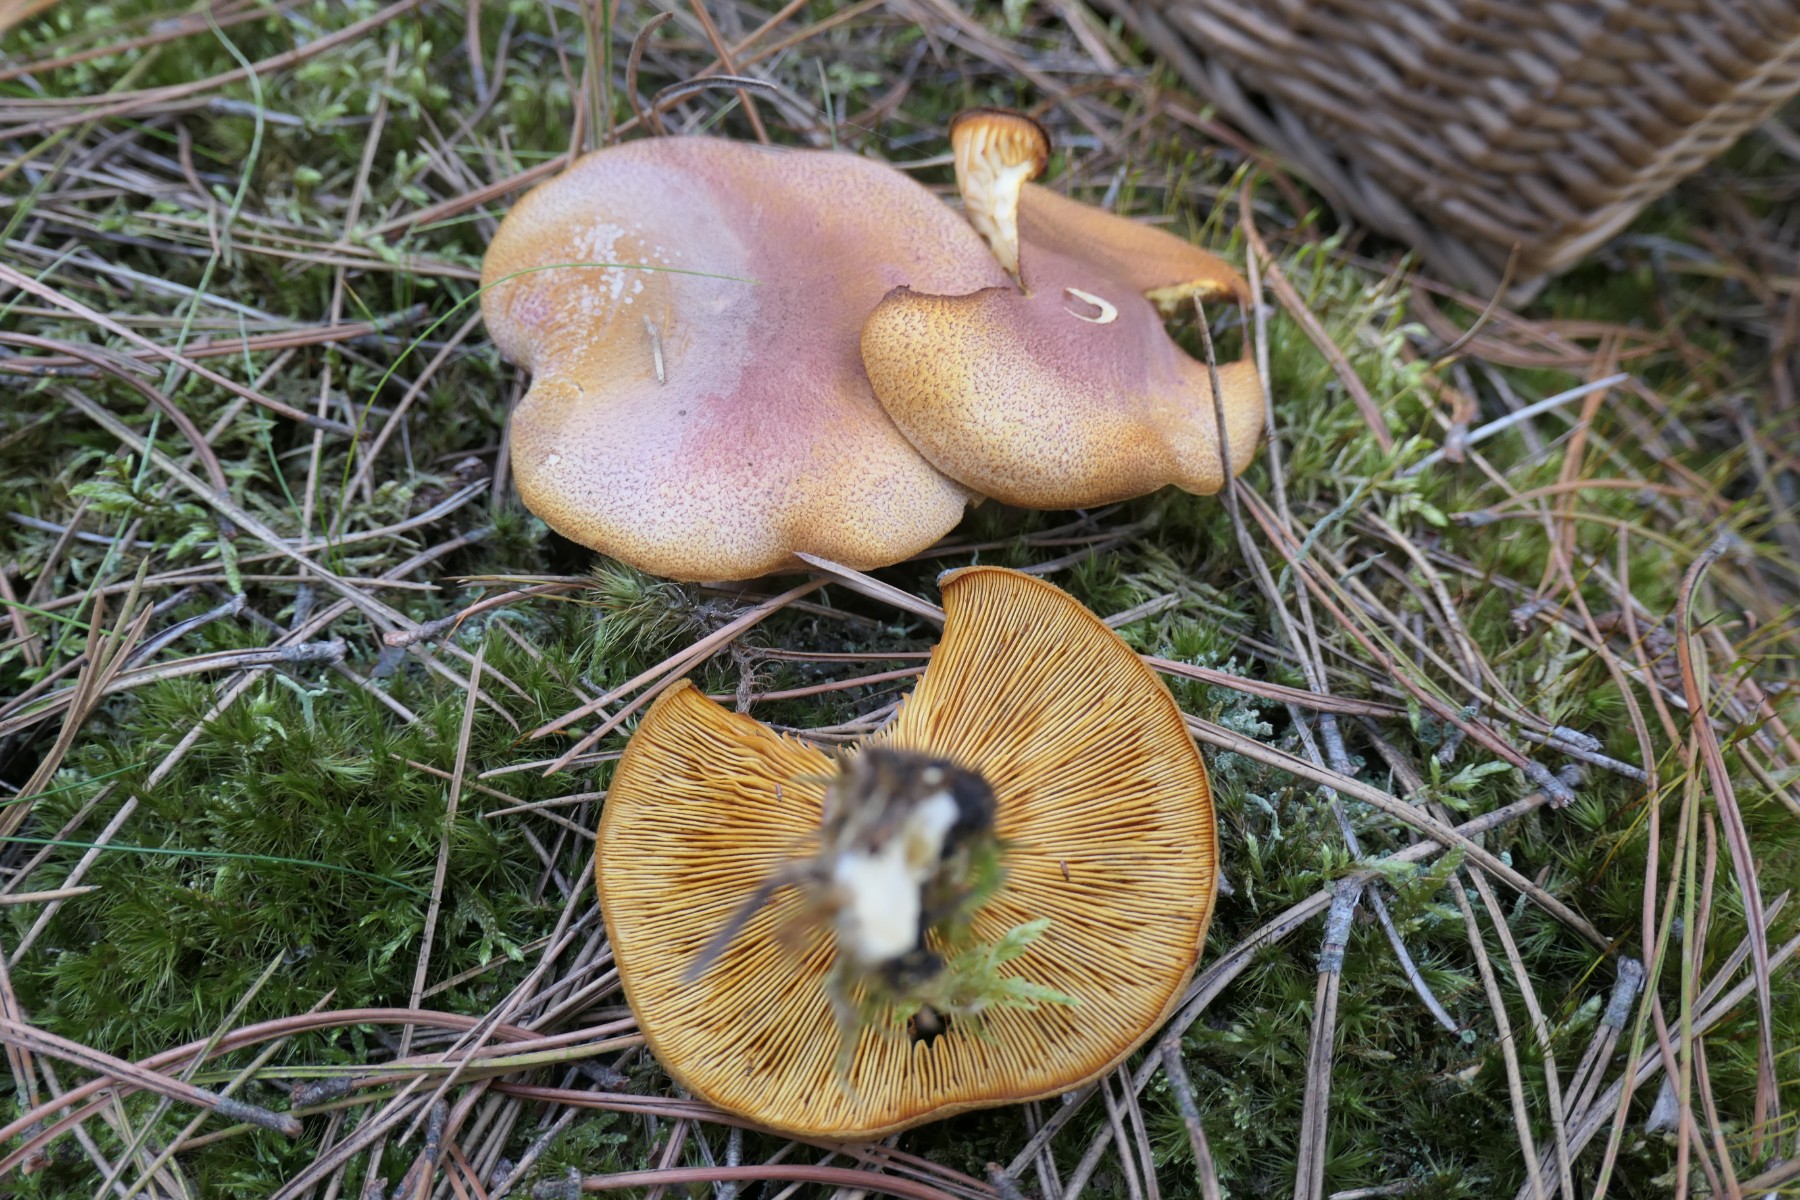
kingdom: Fungi
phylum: Basidiomycota
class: Agaricomycetes
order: Agaricales
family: Tricholomataceae
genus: Tricholomopsis
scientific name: Tricholomopsis rutilans
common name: purpur-væbnerhat
